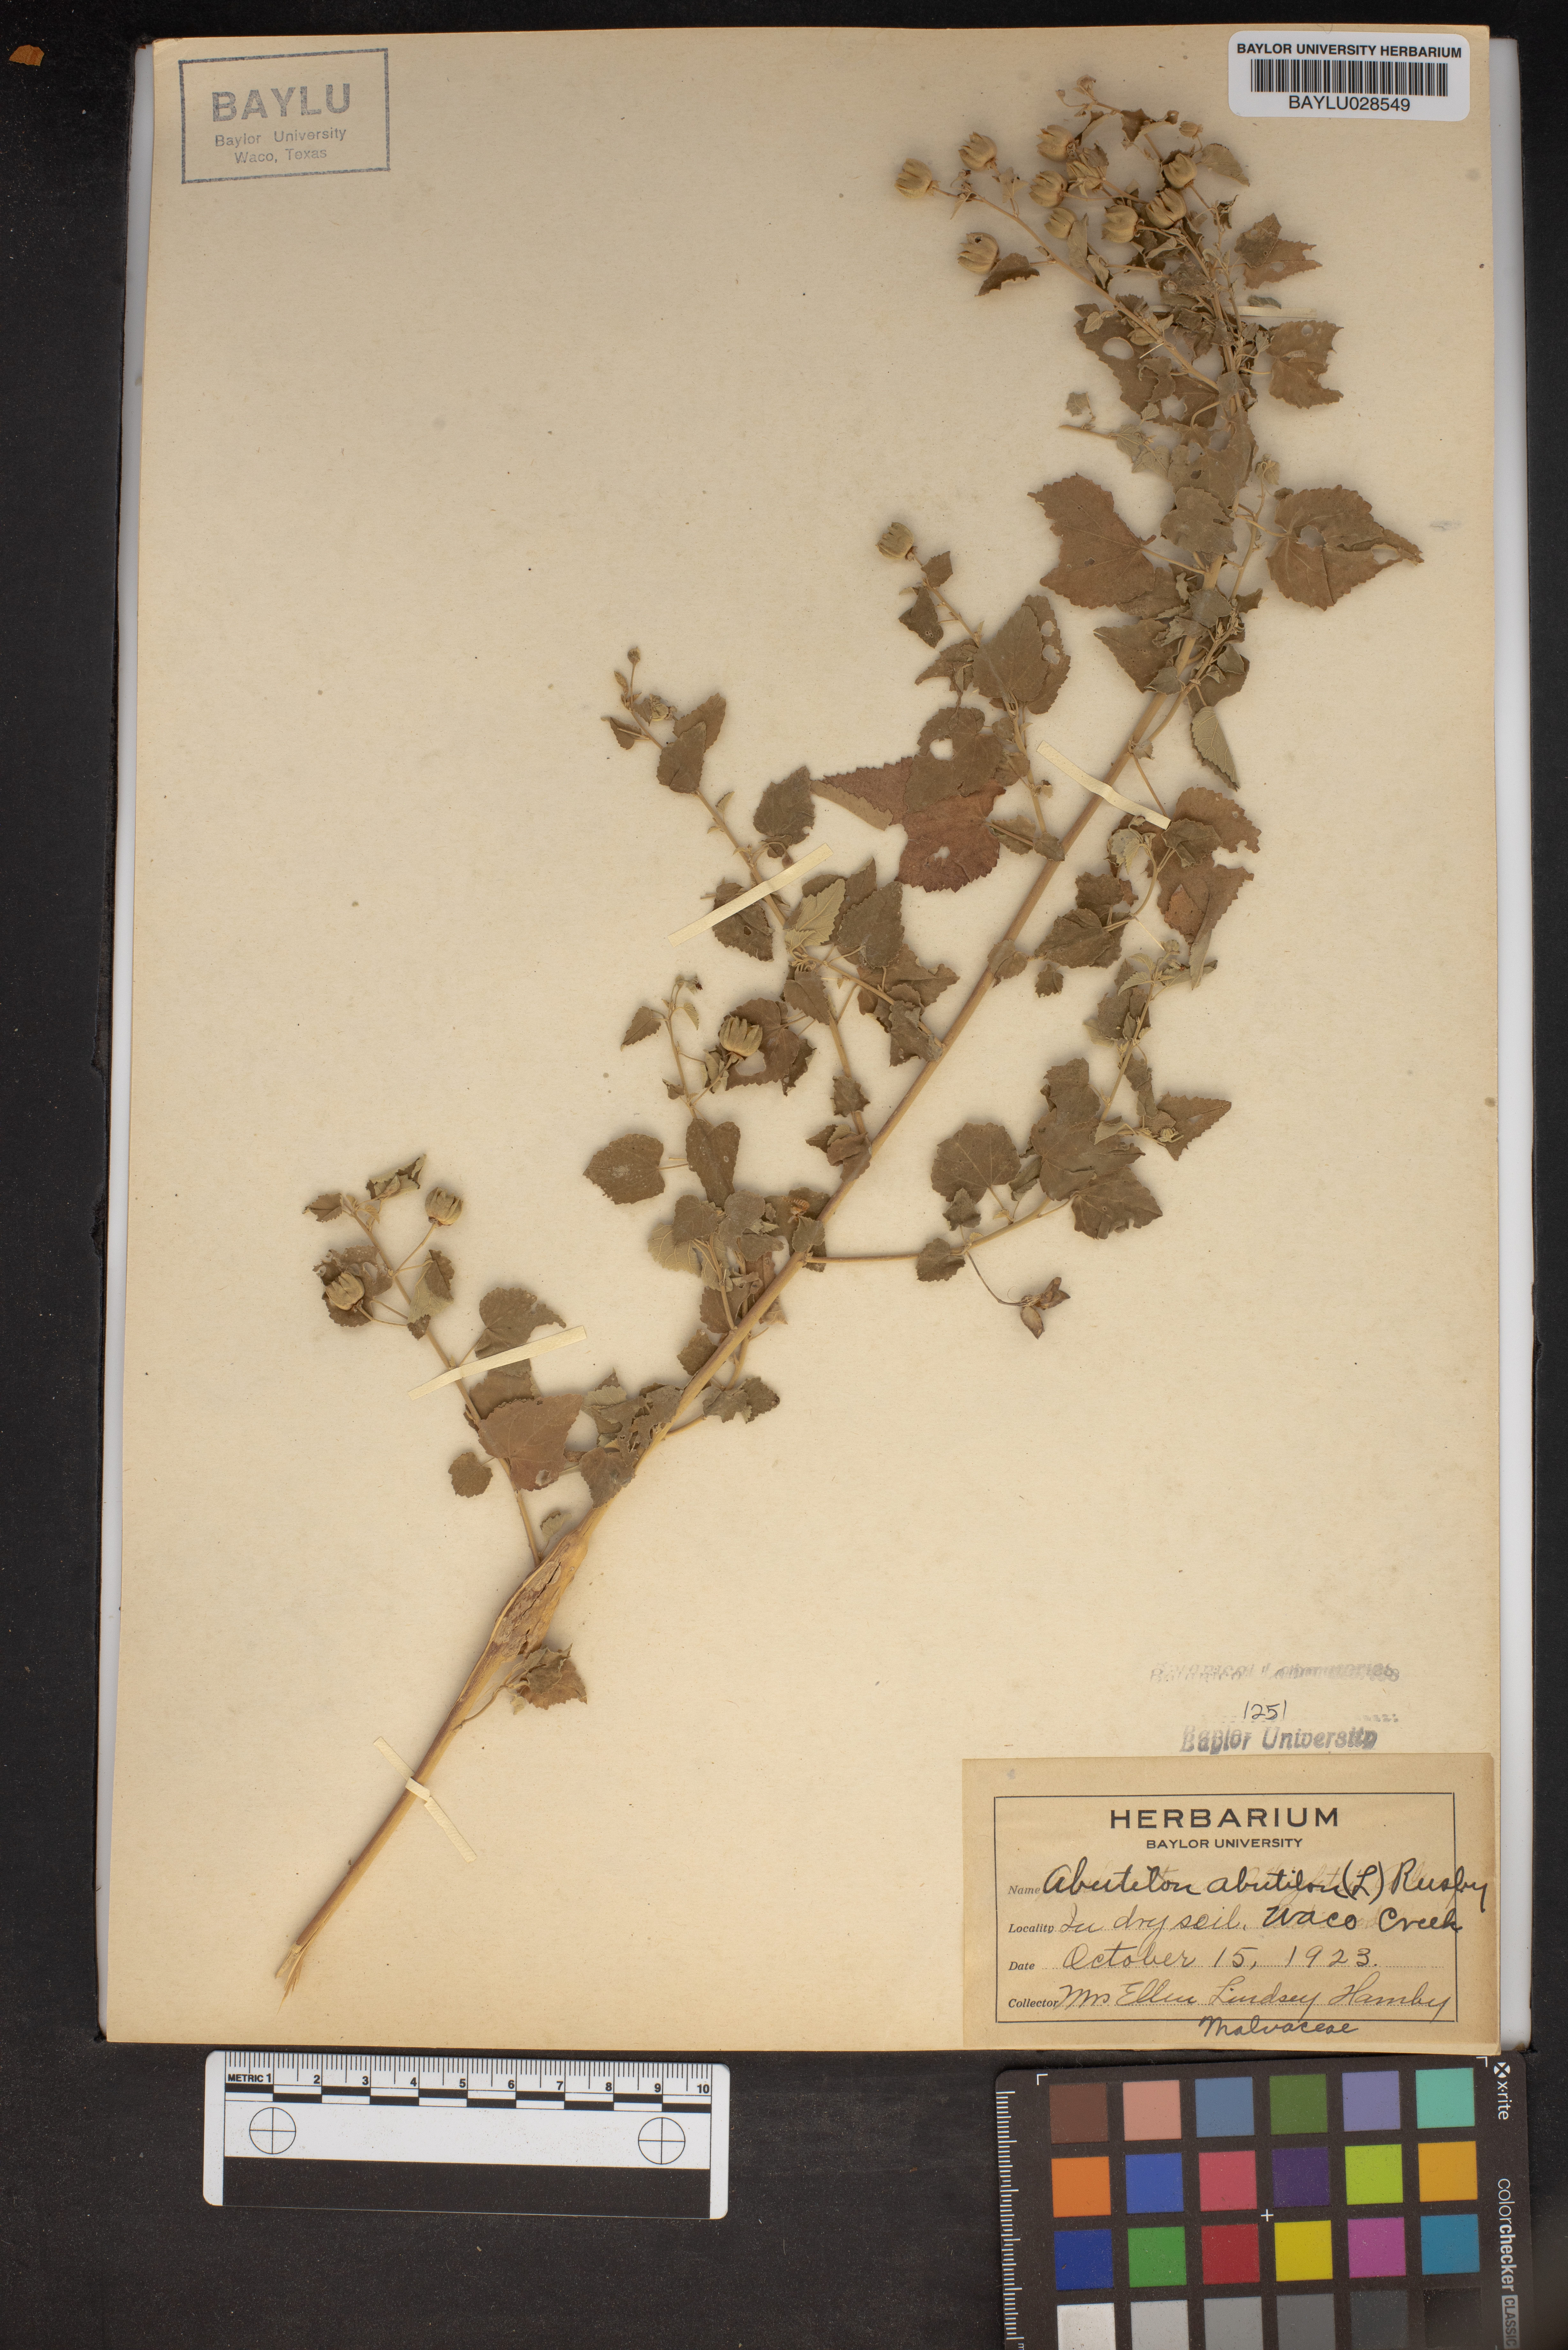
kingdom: Plantae
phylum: Tracheophyta
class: Magnoliopsida
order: Malvales
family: Malvaceae
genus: Abutilon
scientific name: Abutilon theophrasti
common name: Velvetleaf
